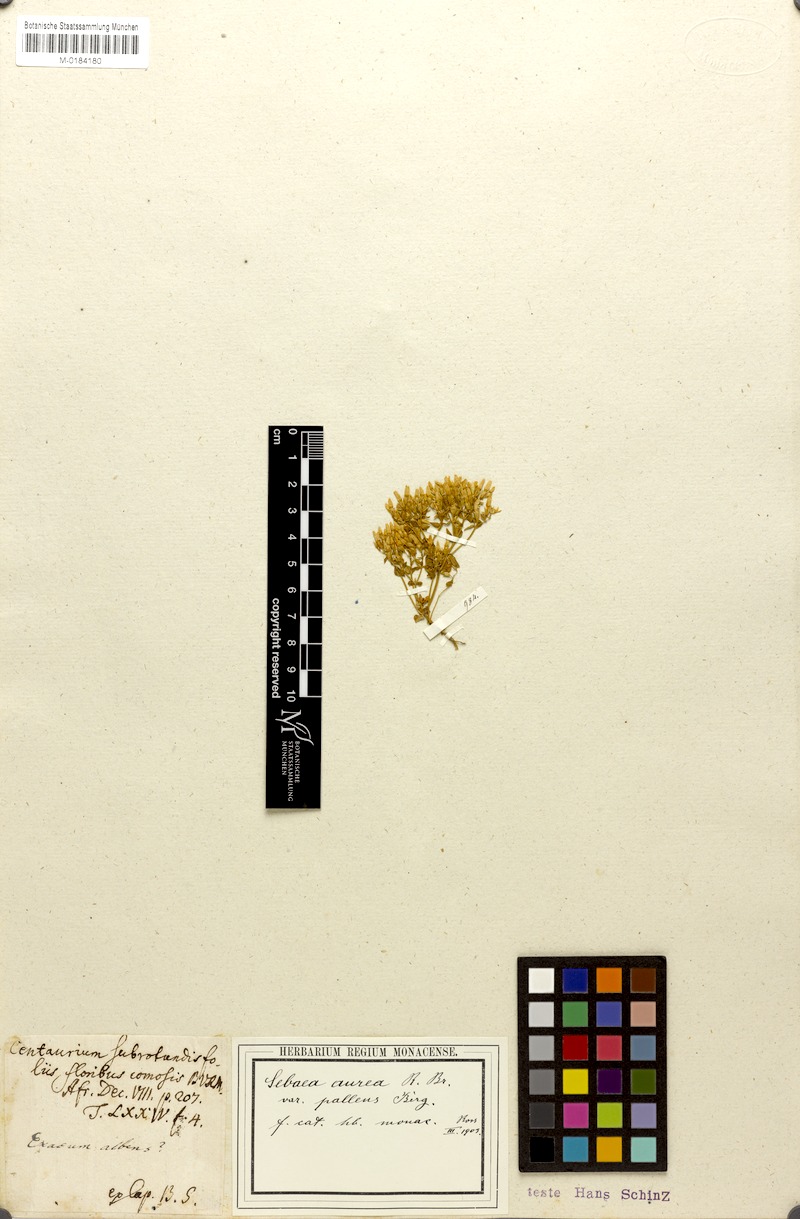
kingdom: Plantae
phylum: Tracheophyta
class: Magnoliopsida
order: Gentianales
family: Gentianaceae
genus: Sebaea
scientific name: Sebaea aurea
